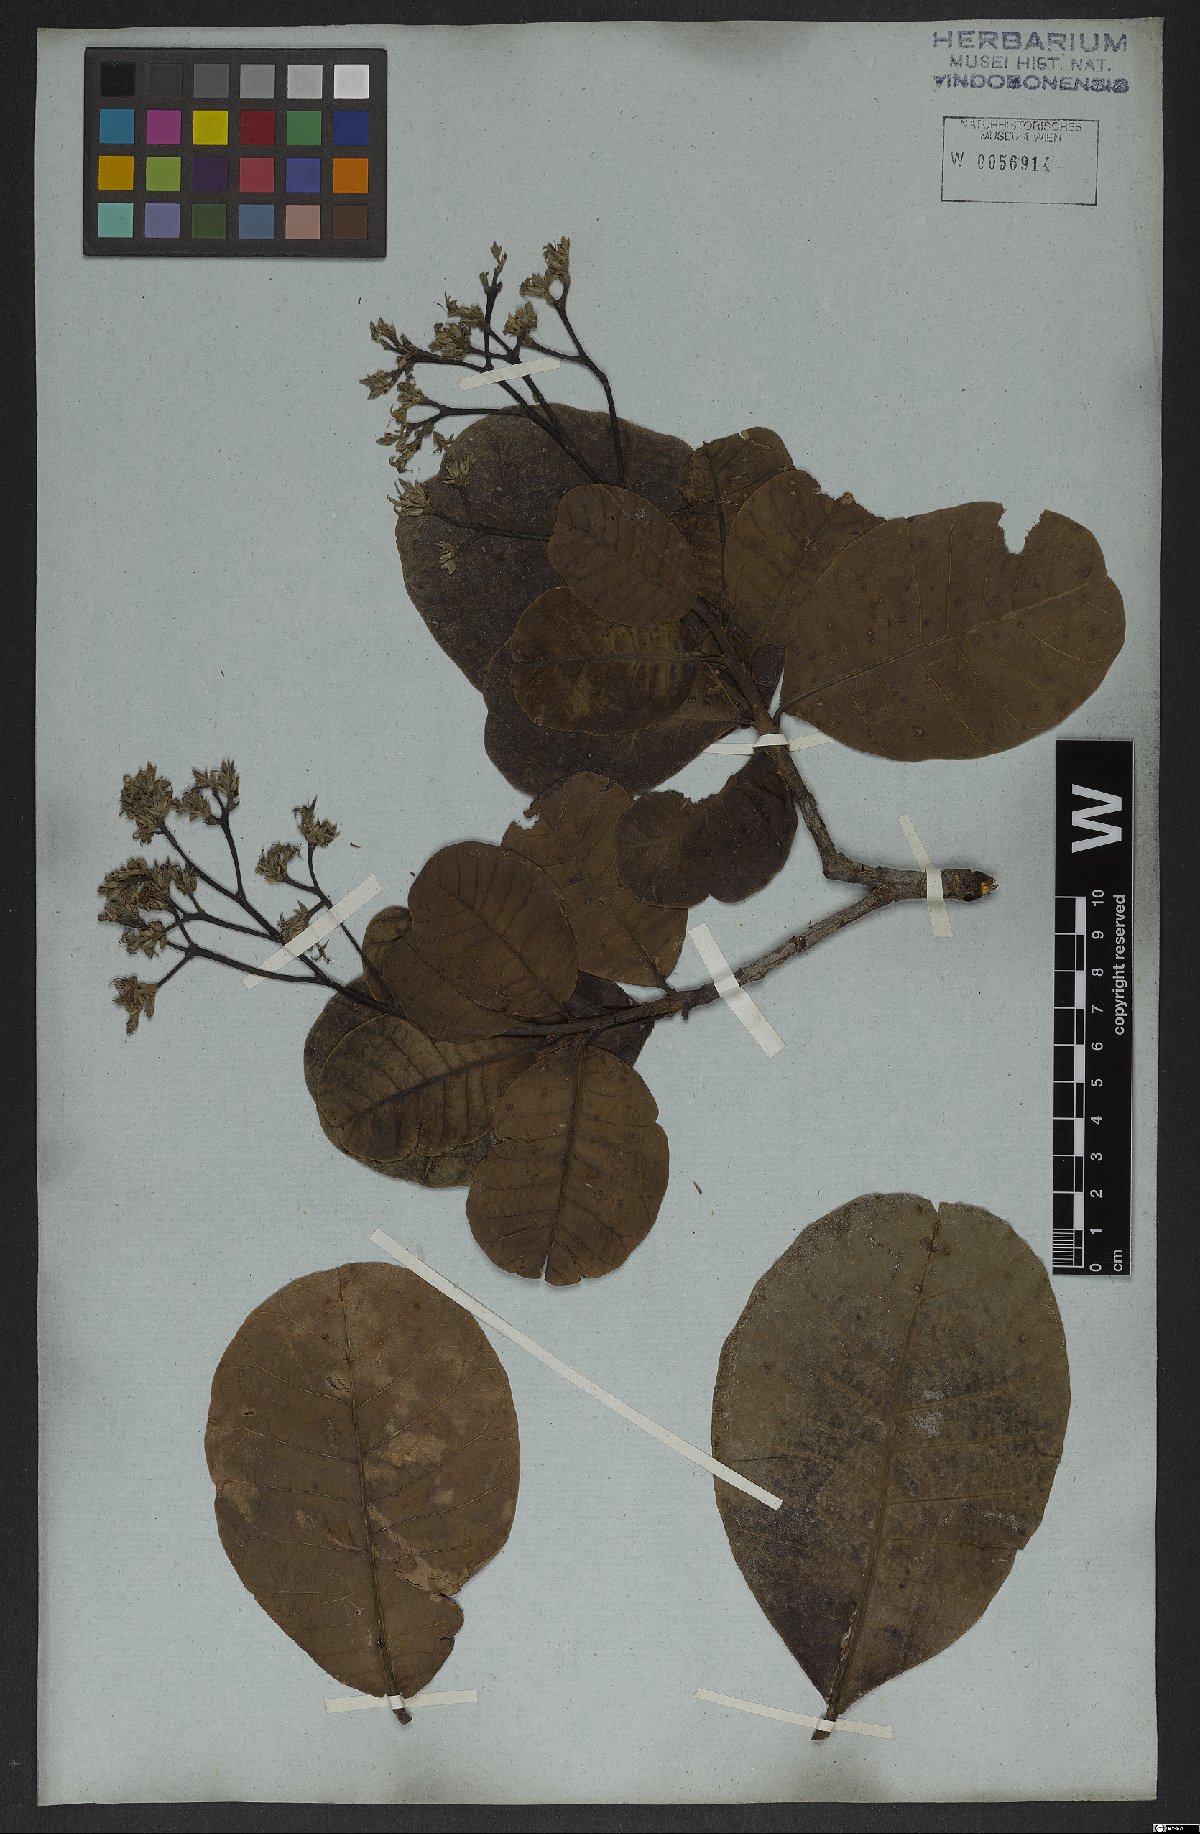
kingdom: Plantae
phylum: Tracheophyta
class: Magnoliopsida
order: Sapindales
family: Anacardiaceae
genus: Anacardium
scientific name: Anacardium occidentale
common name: Cashew
